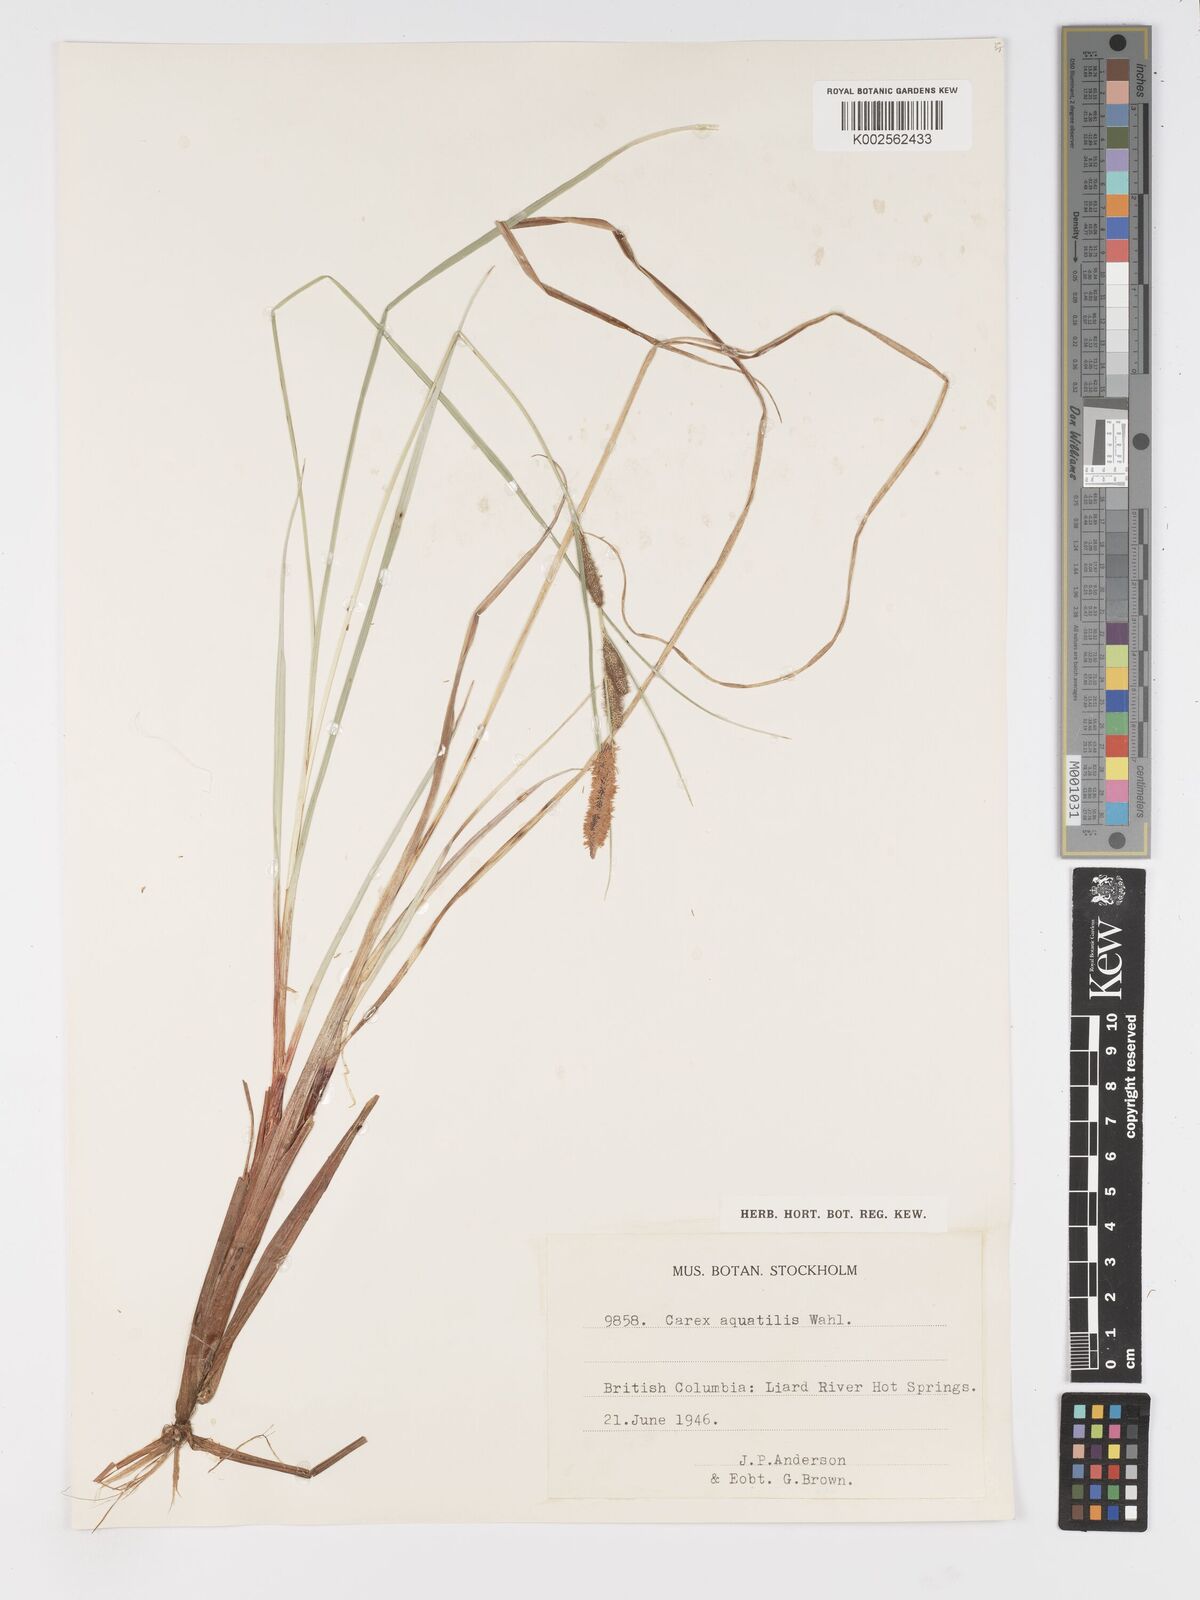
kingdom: Plantae
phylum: Tracheophyta
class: Liliopsida
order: Poales
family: Cyperaceae
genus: Carex
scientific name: Carex
